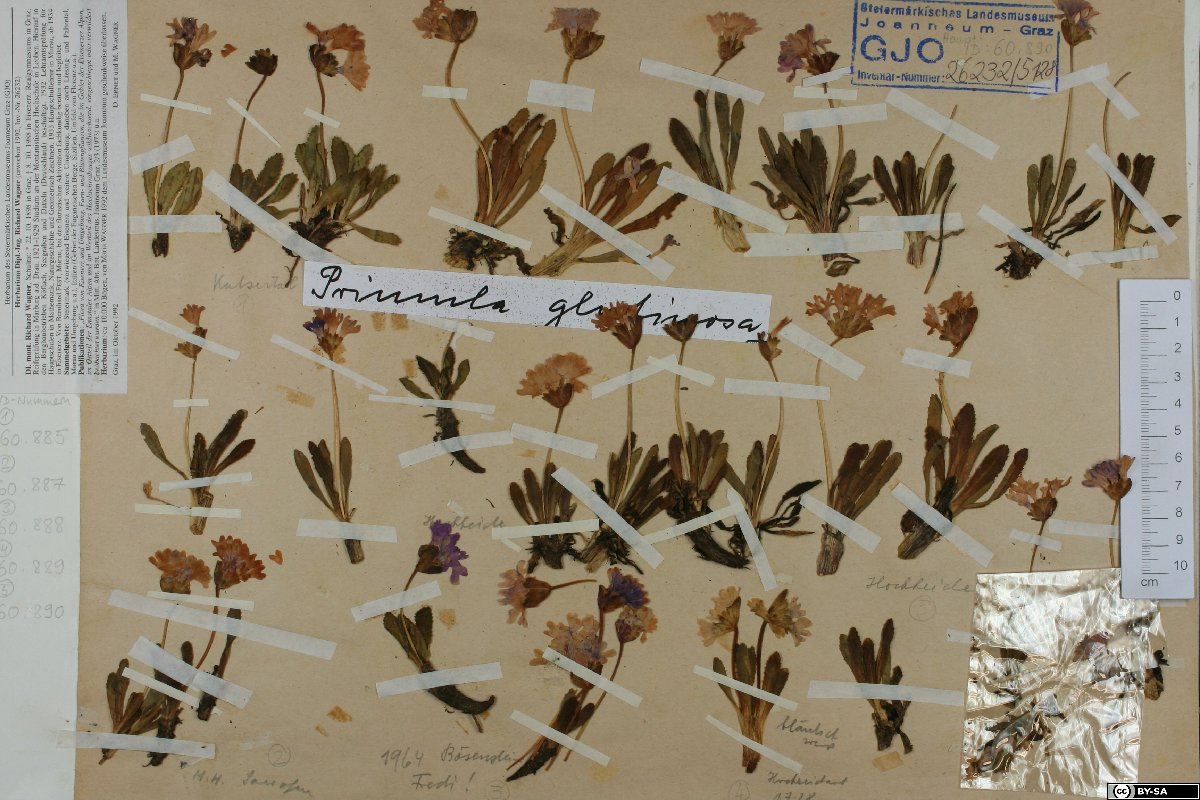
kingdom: Plantae
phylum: Tracheophyta
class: Magnoliopsida
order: Ericales
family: Primulaceae
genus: Primula
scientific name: Primula glutinosa
